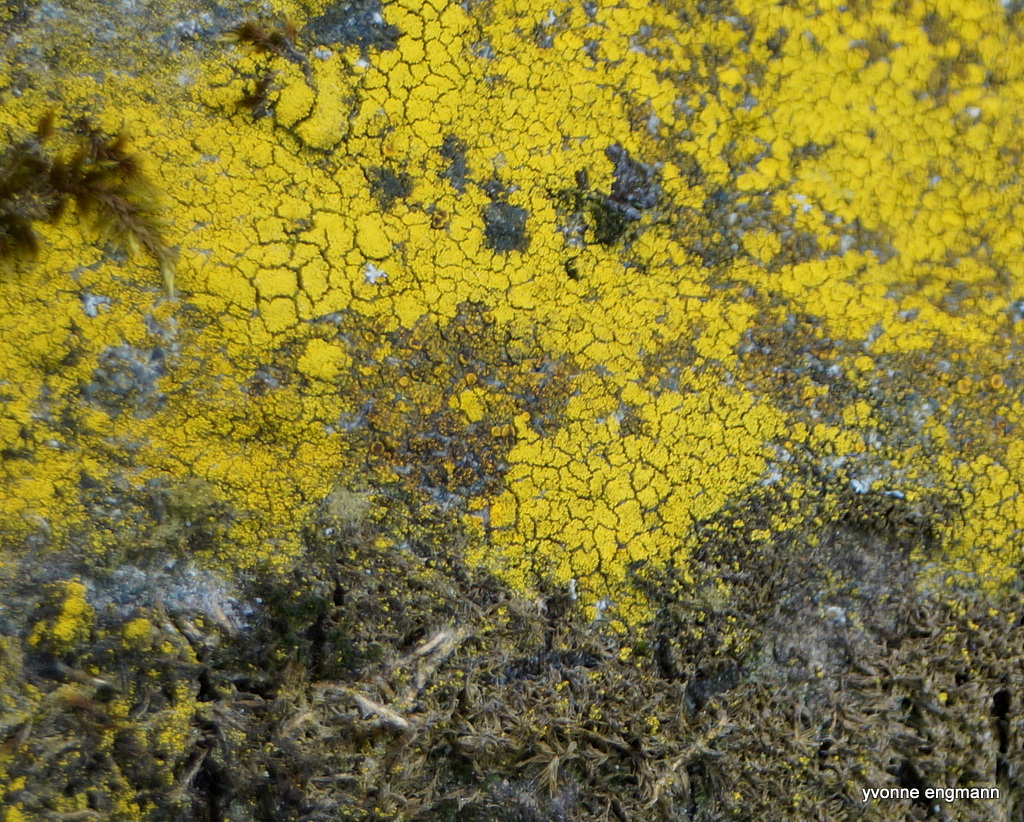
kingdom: Fungi
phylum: Ascomycota
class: Candelariomycetes
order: Candelariales
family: Candelariaceae
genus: Candelariella
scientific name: Candelariella vitellina
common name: almindelig æggeblommelav
